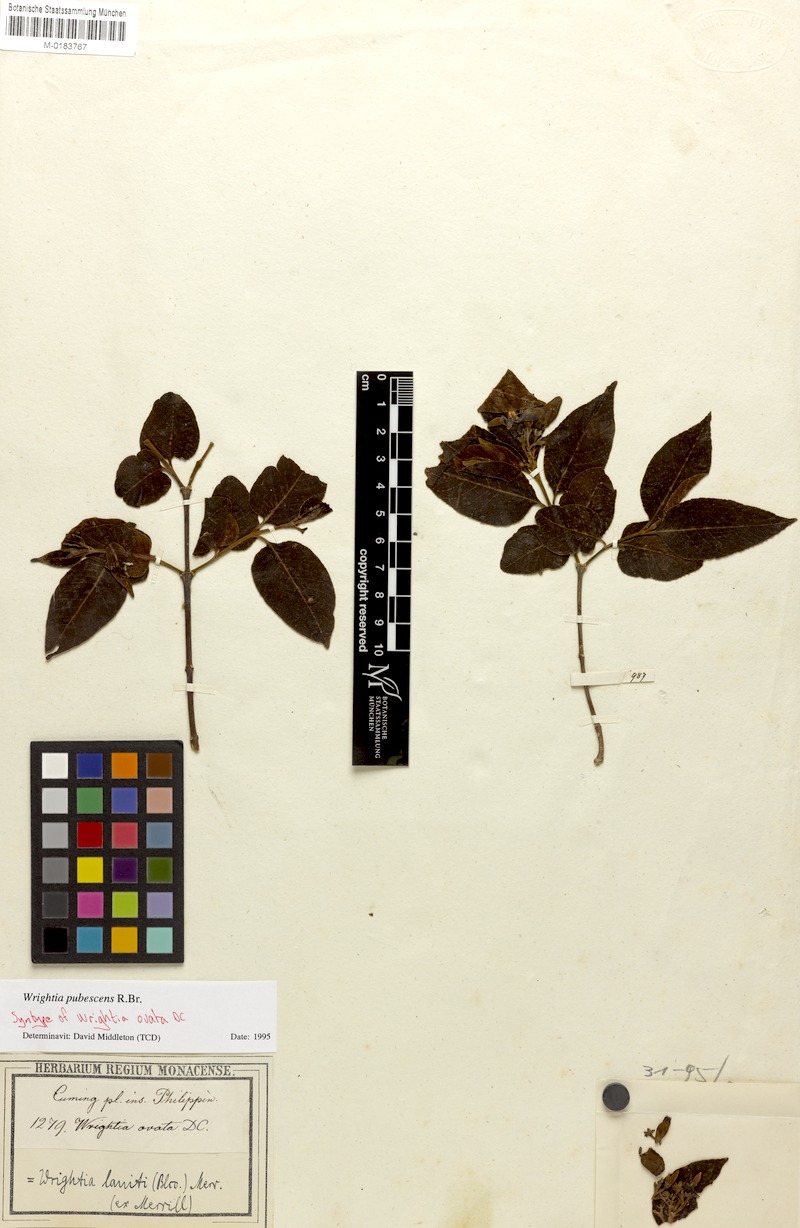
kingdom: Plantae
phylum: Tracheophyta
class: Magnoliopsida
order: Gentianales
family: Apocynaceae
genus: Wrightia
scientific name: Wrightia pubescens
